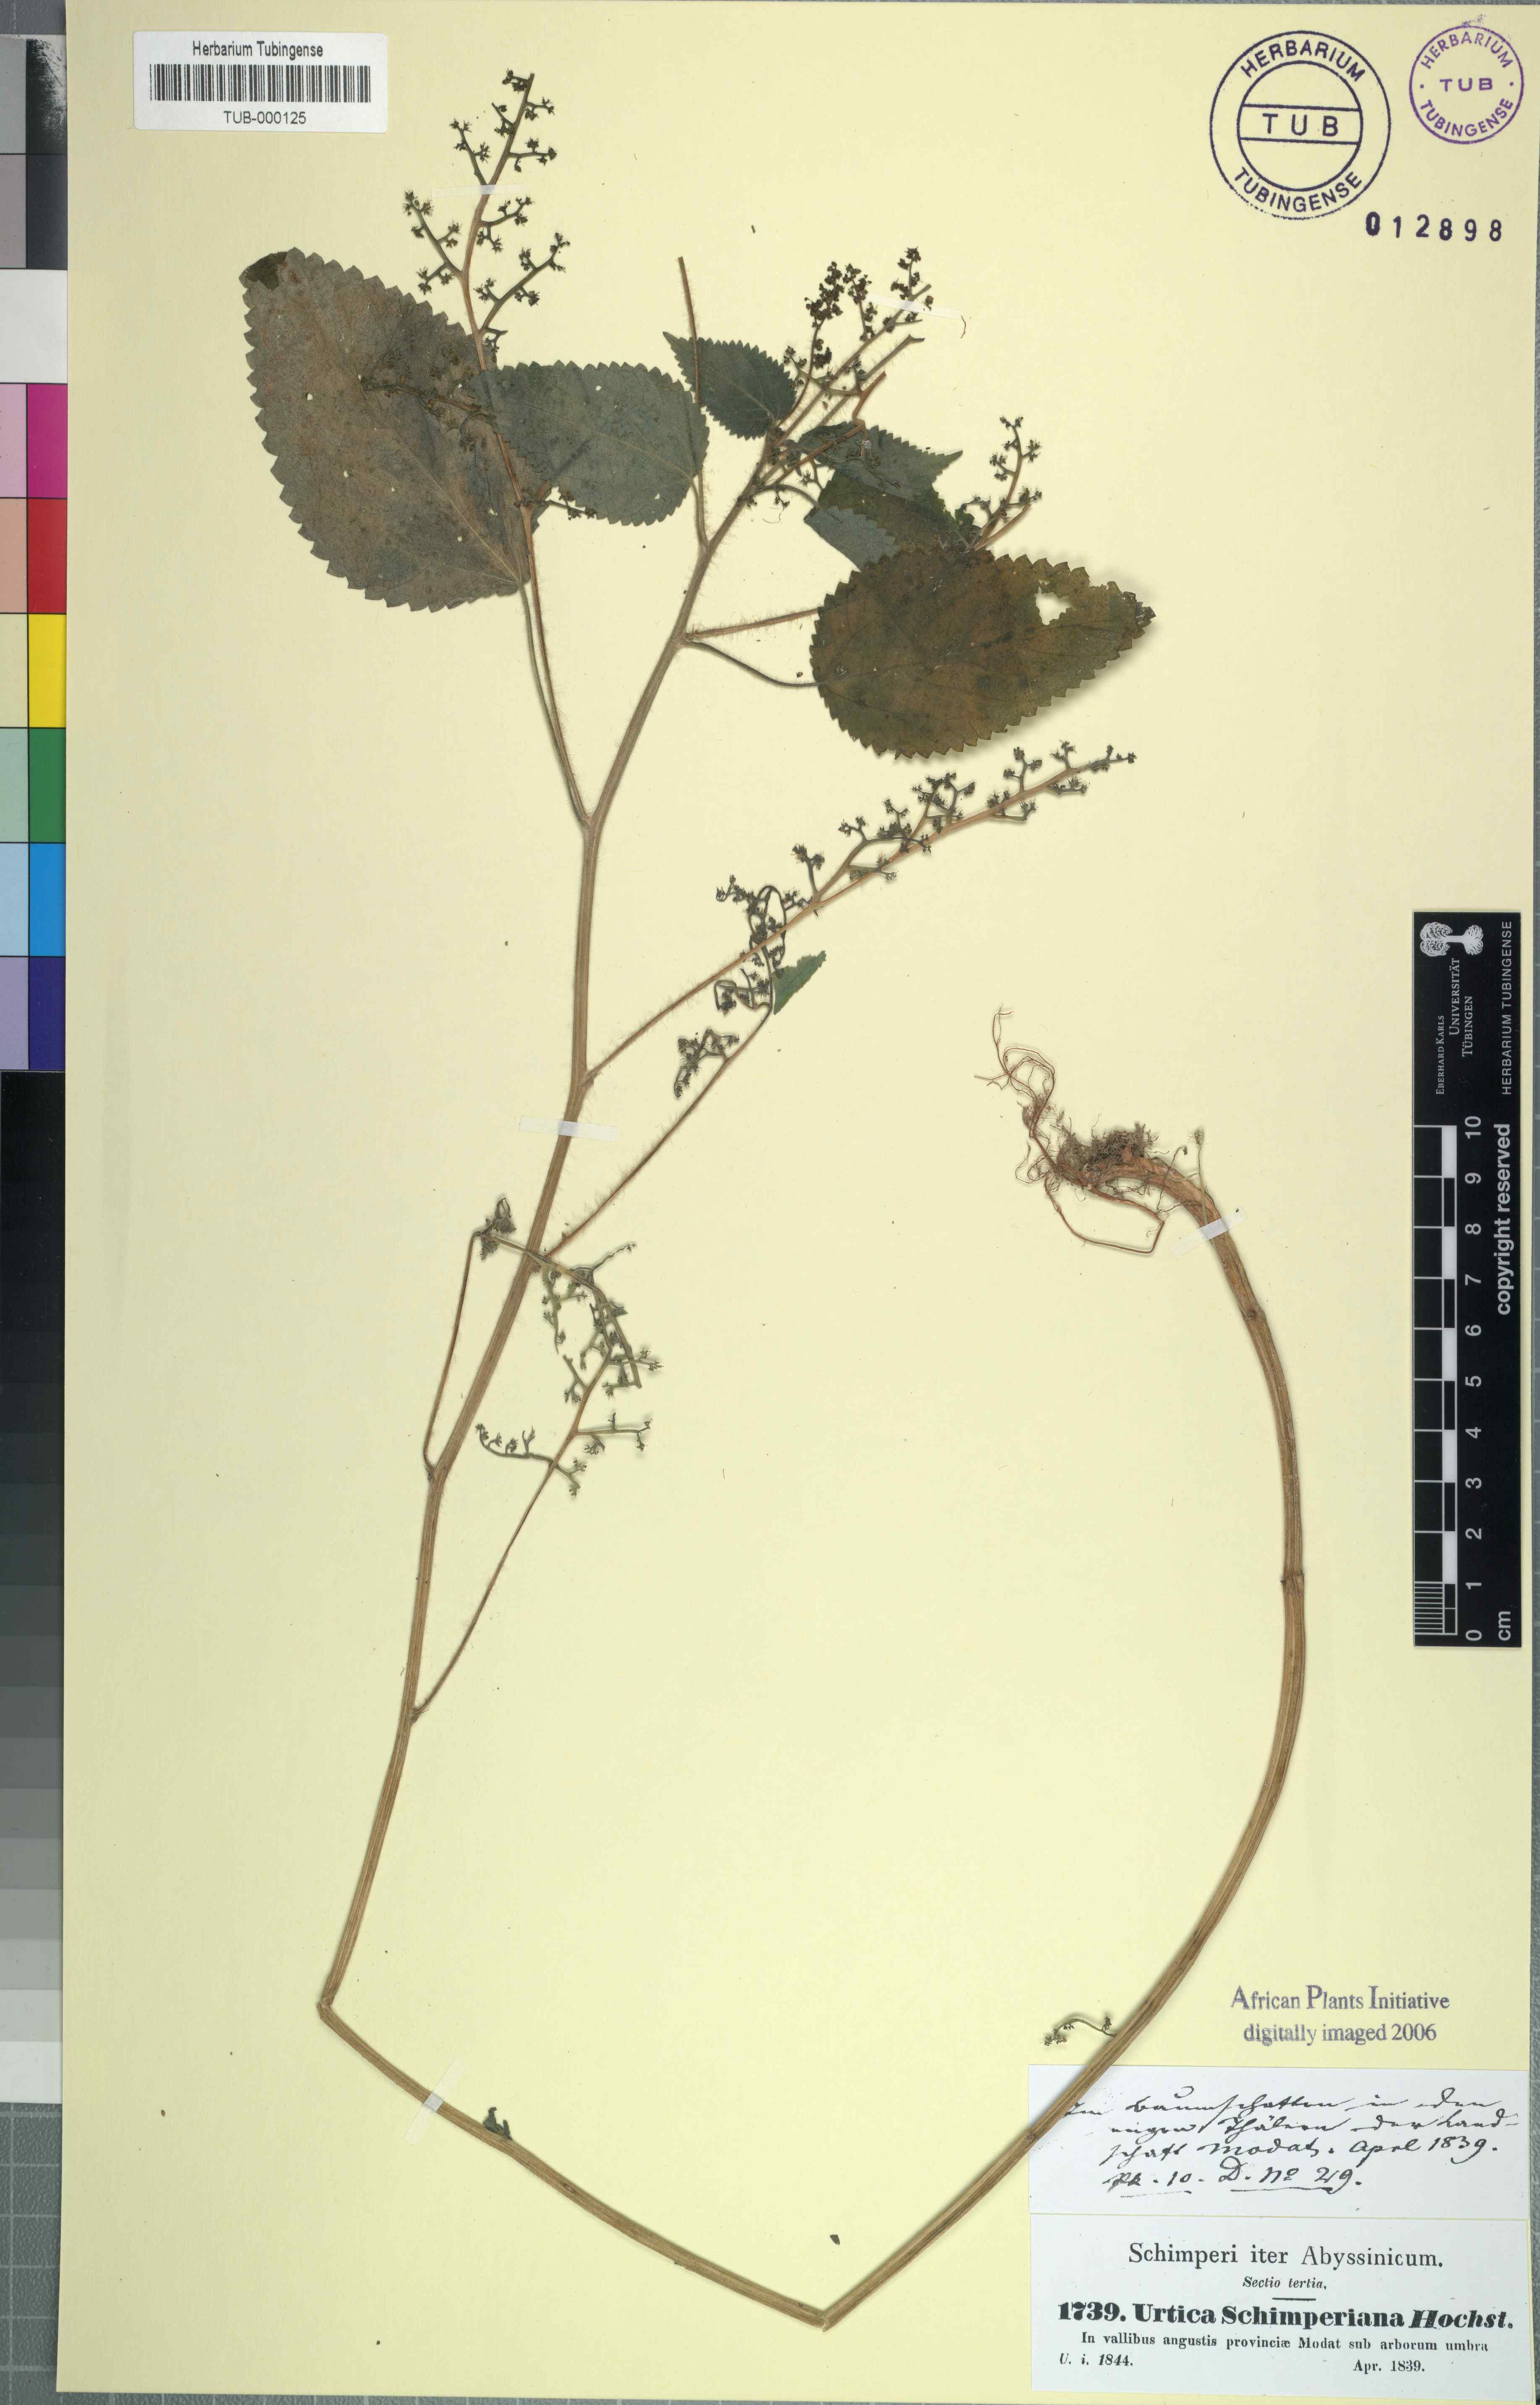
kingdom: Plantae
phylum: Tracheophyta
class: Magnoliopsida
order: Rosales
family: Urticaceae
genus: Laportea
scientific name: Laportea aestuans
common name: West indian woodnettle
